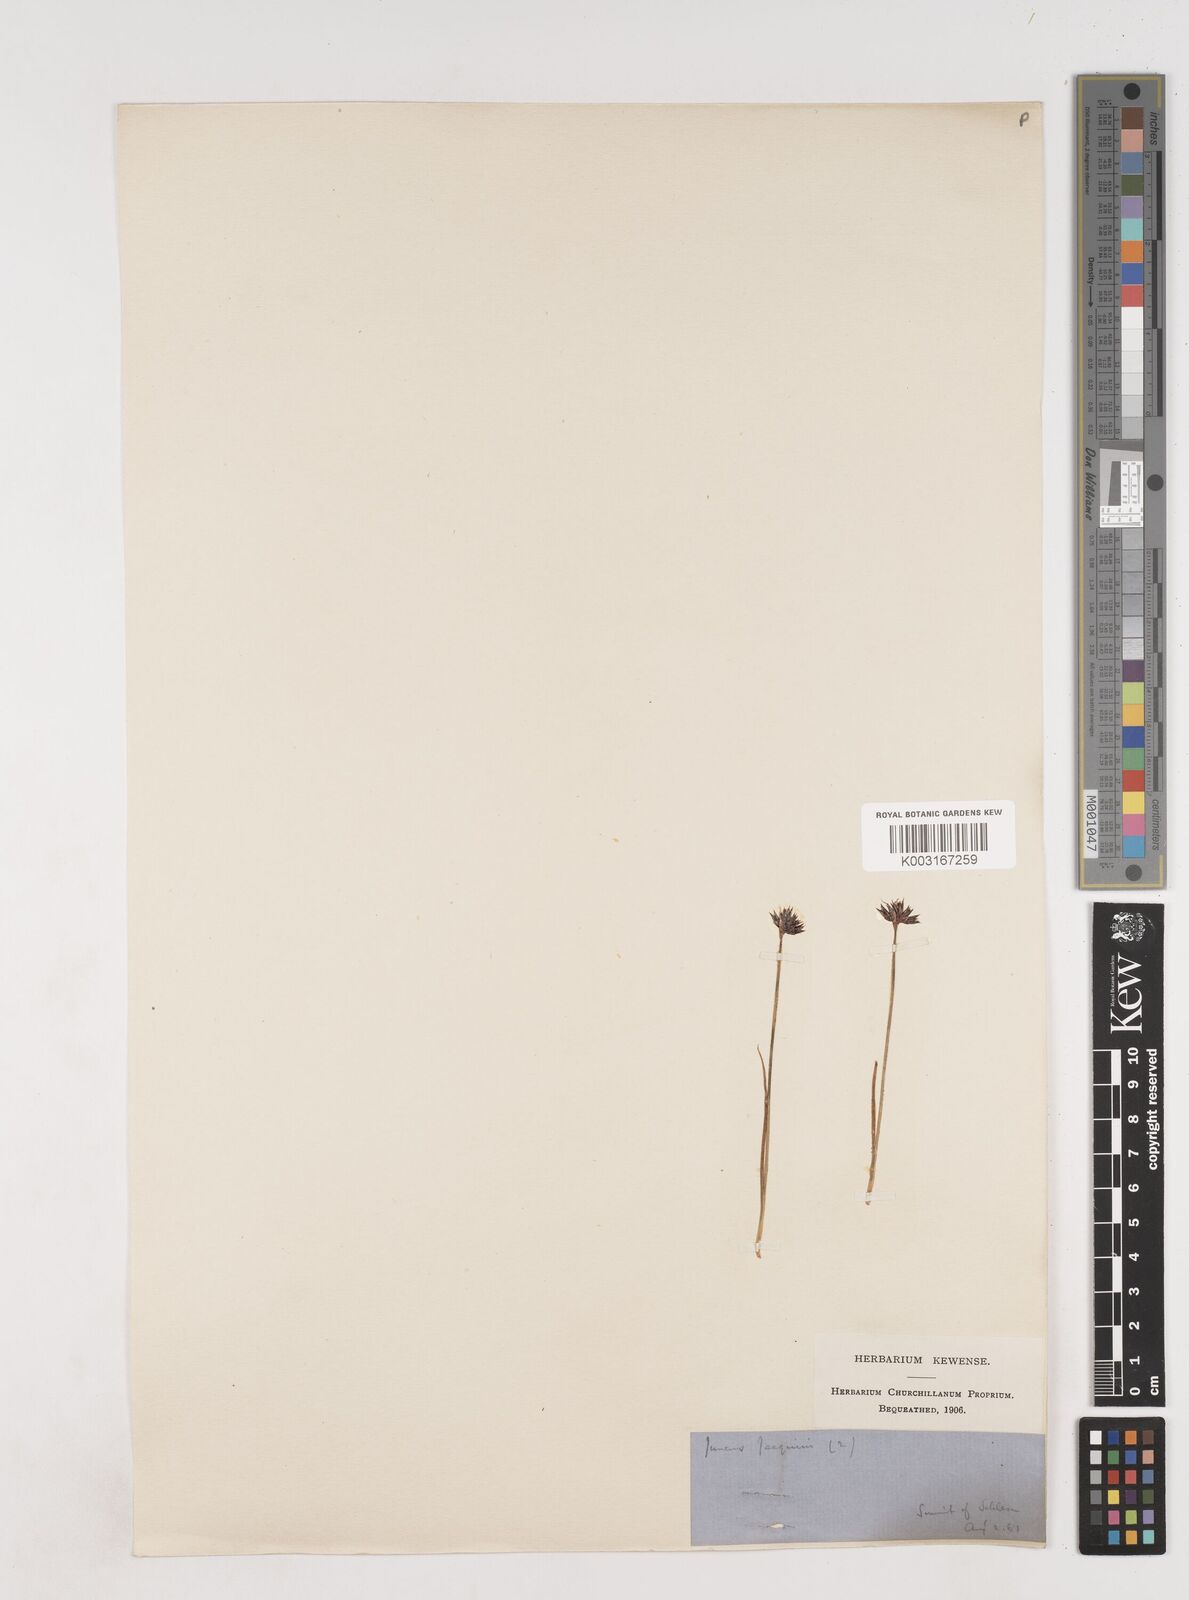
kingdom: Plantae
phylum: Tracheophyta
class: Liliopsida
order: Poales
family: Juncaceae
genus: Juncus
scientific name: Juncus jacquinii
